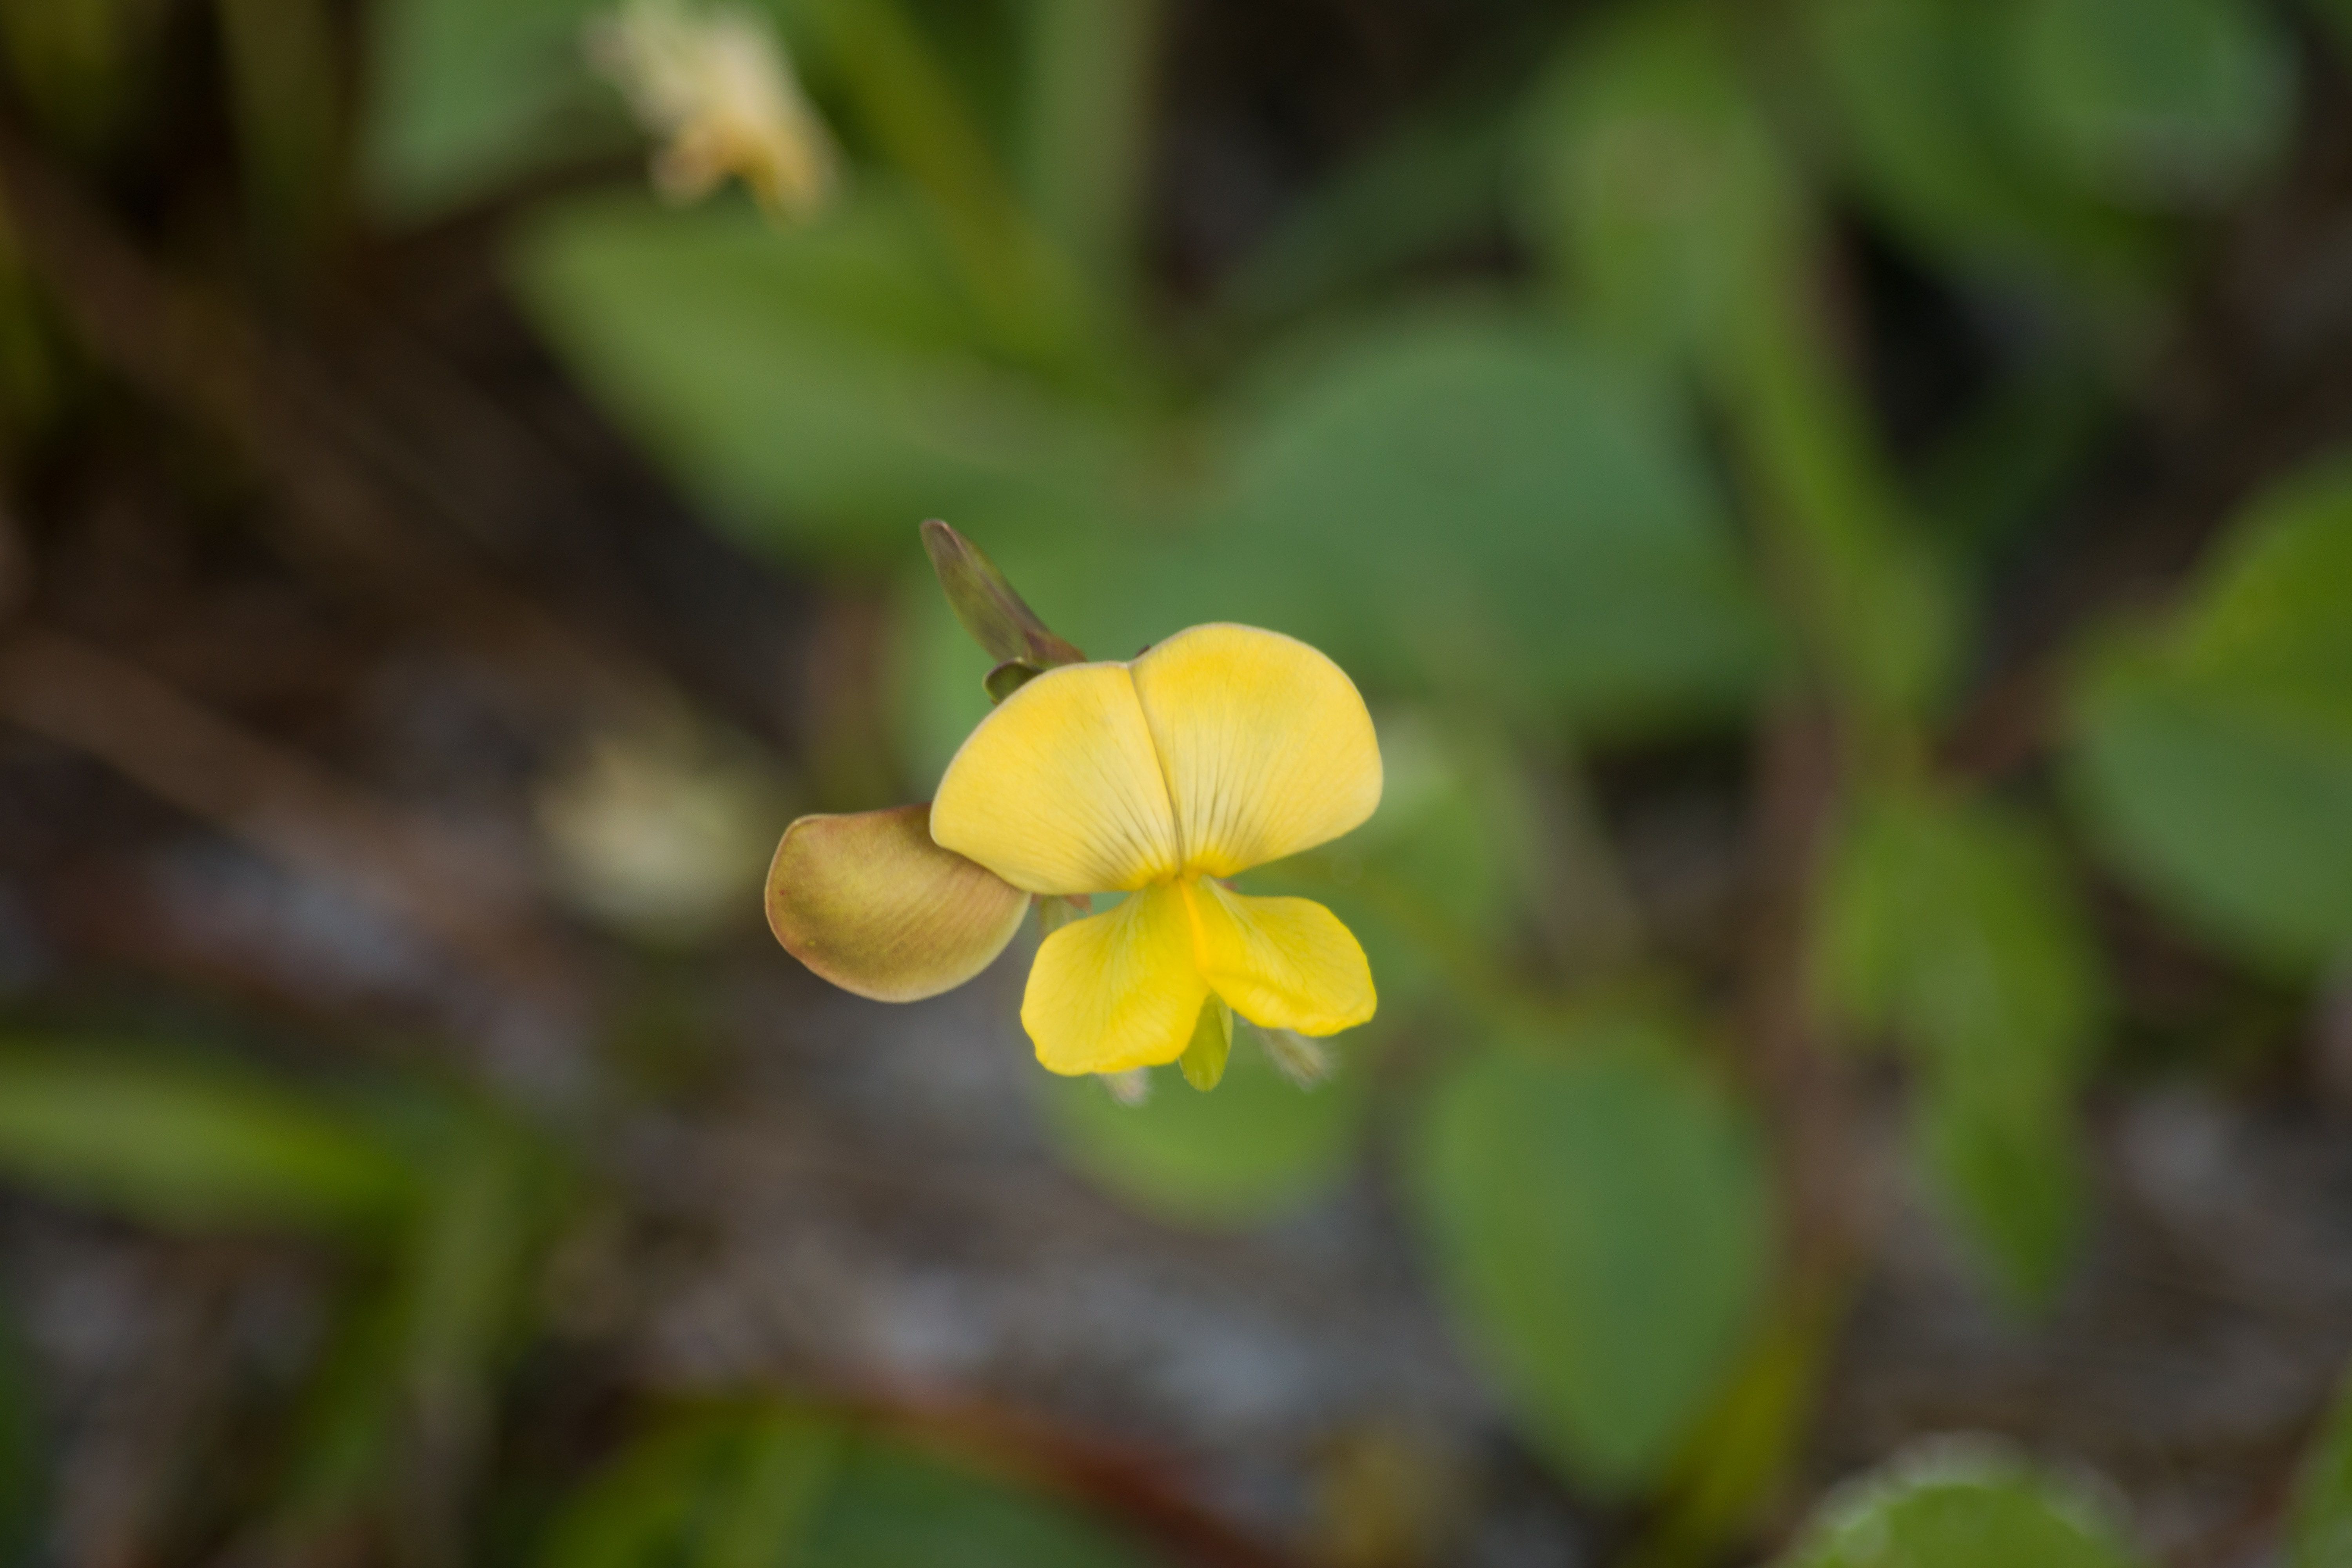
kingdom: Plantae
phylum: Tracheophyta
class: Magnoliopsida
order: Fabales
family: Fabaceae
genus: Vigna
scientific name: Vigna luteola
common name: Hairypod cowpea
